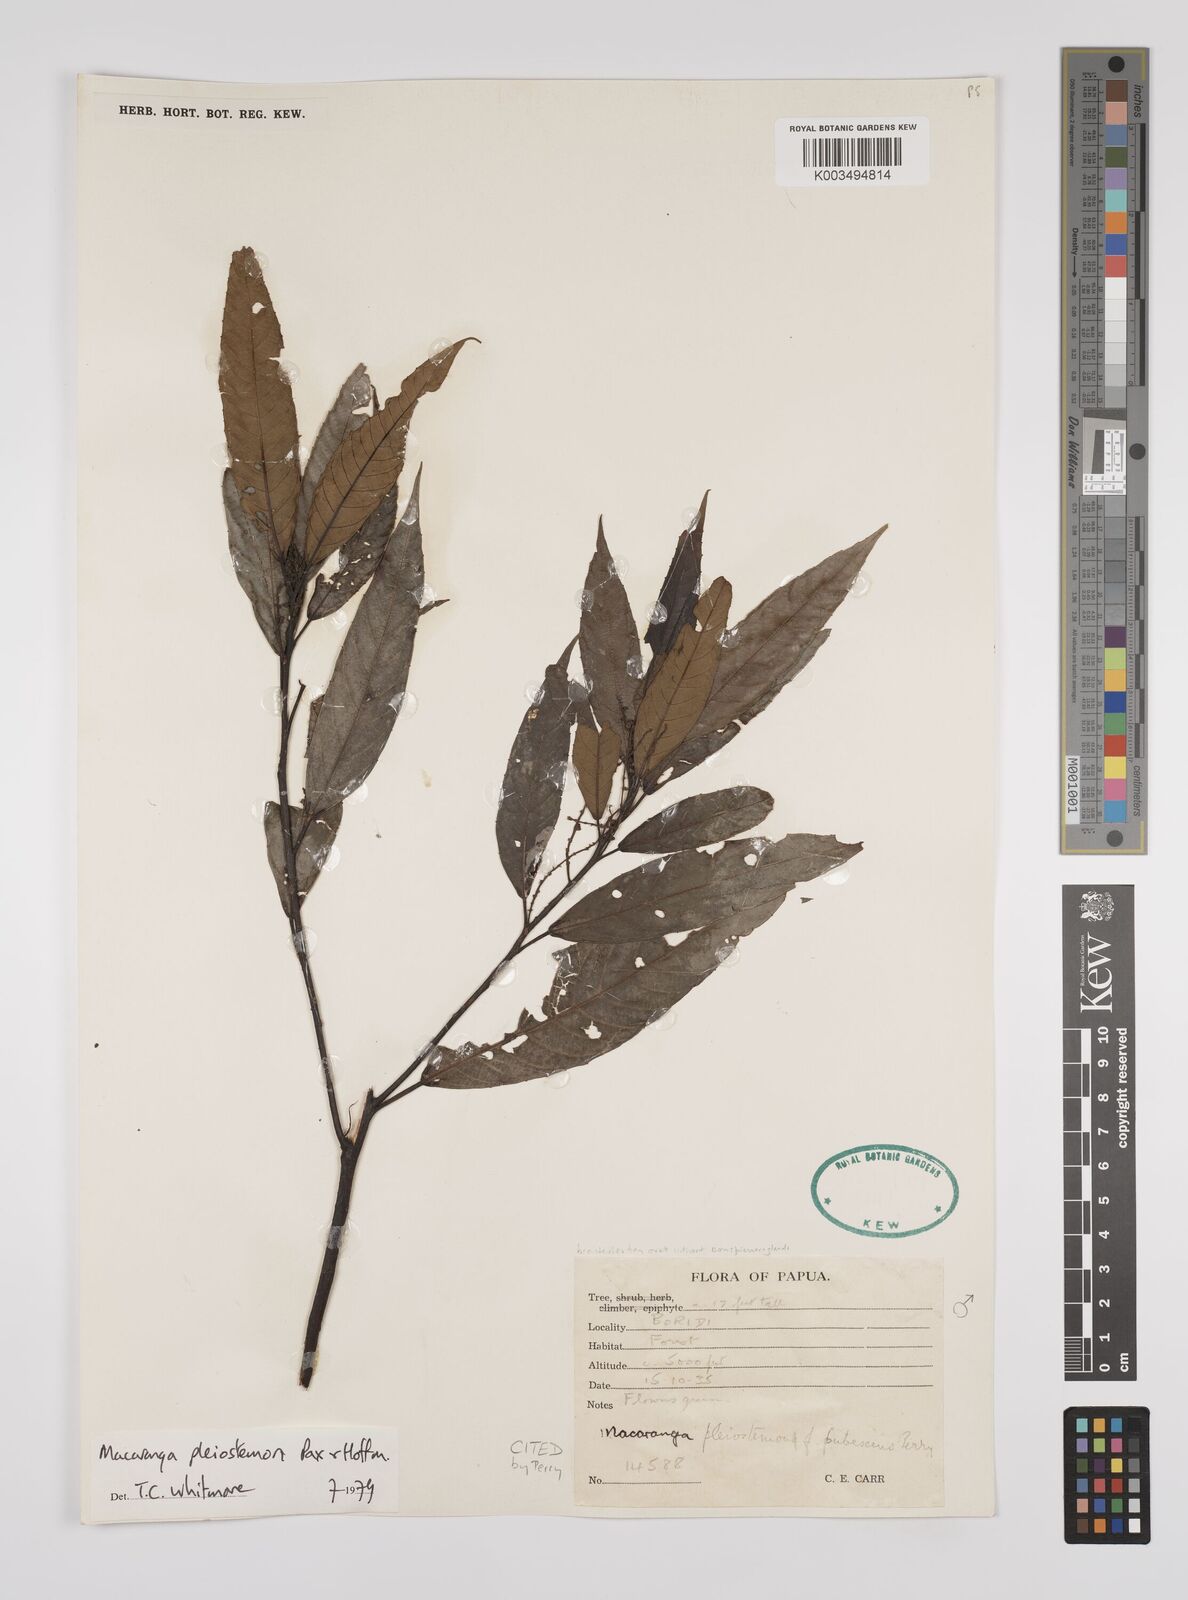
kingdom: Plantae
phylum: Tracheophyta
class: Magnoliopsida
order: Malpighiales
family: Euphorbiaceae
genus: Macaranga
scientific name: Macaranga pleiostemon
